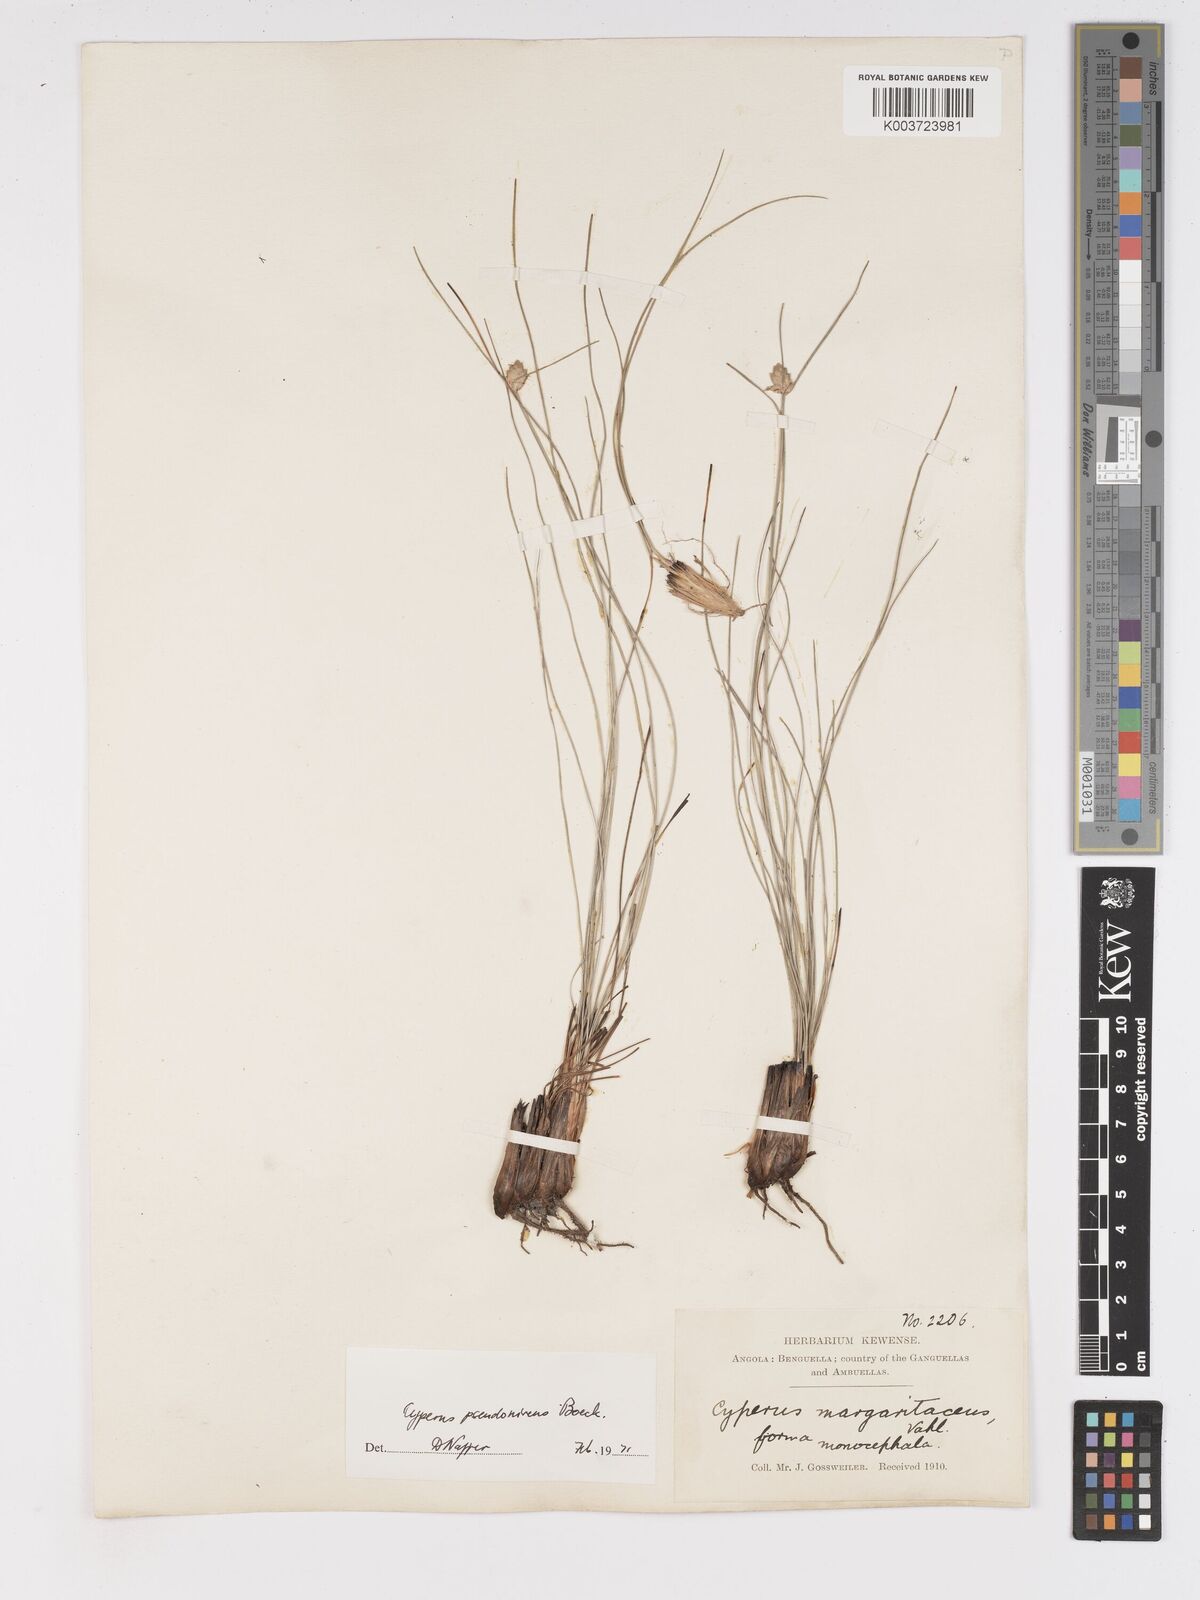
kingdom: Plantae
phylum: Tracheophyta
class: Liliopsida
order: Poales
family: Cyperaceae
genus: Cyperus
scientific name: Cyperus margaritaceus
